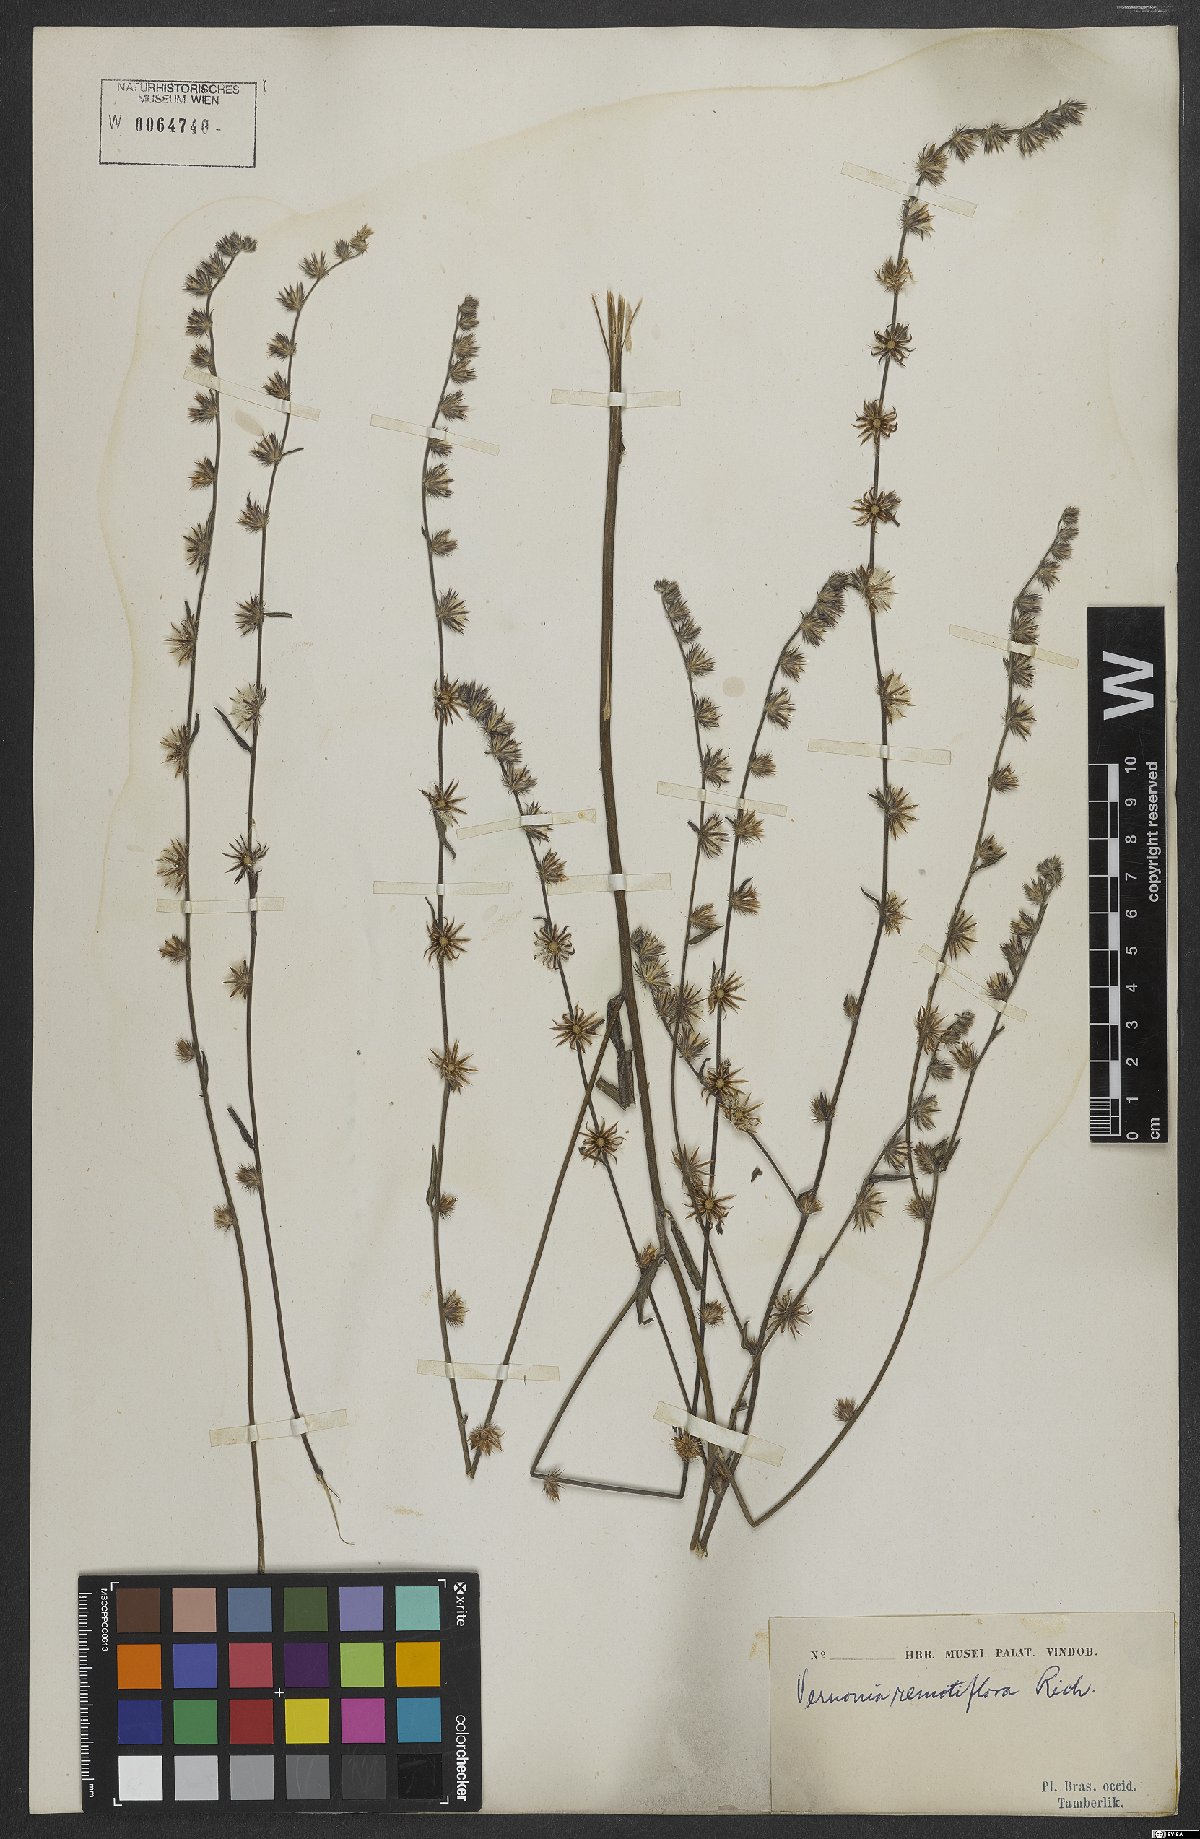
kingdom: Plantae
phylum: Tracheophyta
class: Magnoliopsida
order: Asterales
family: Asteraceae
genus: Lepidaploa
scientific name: Lepidaploa remotiflora
